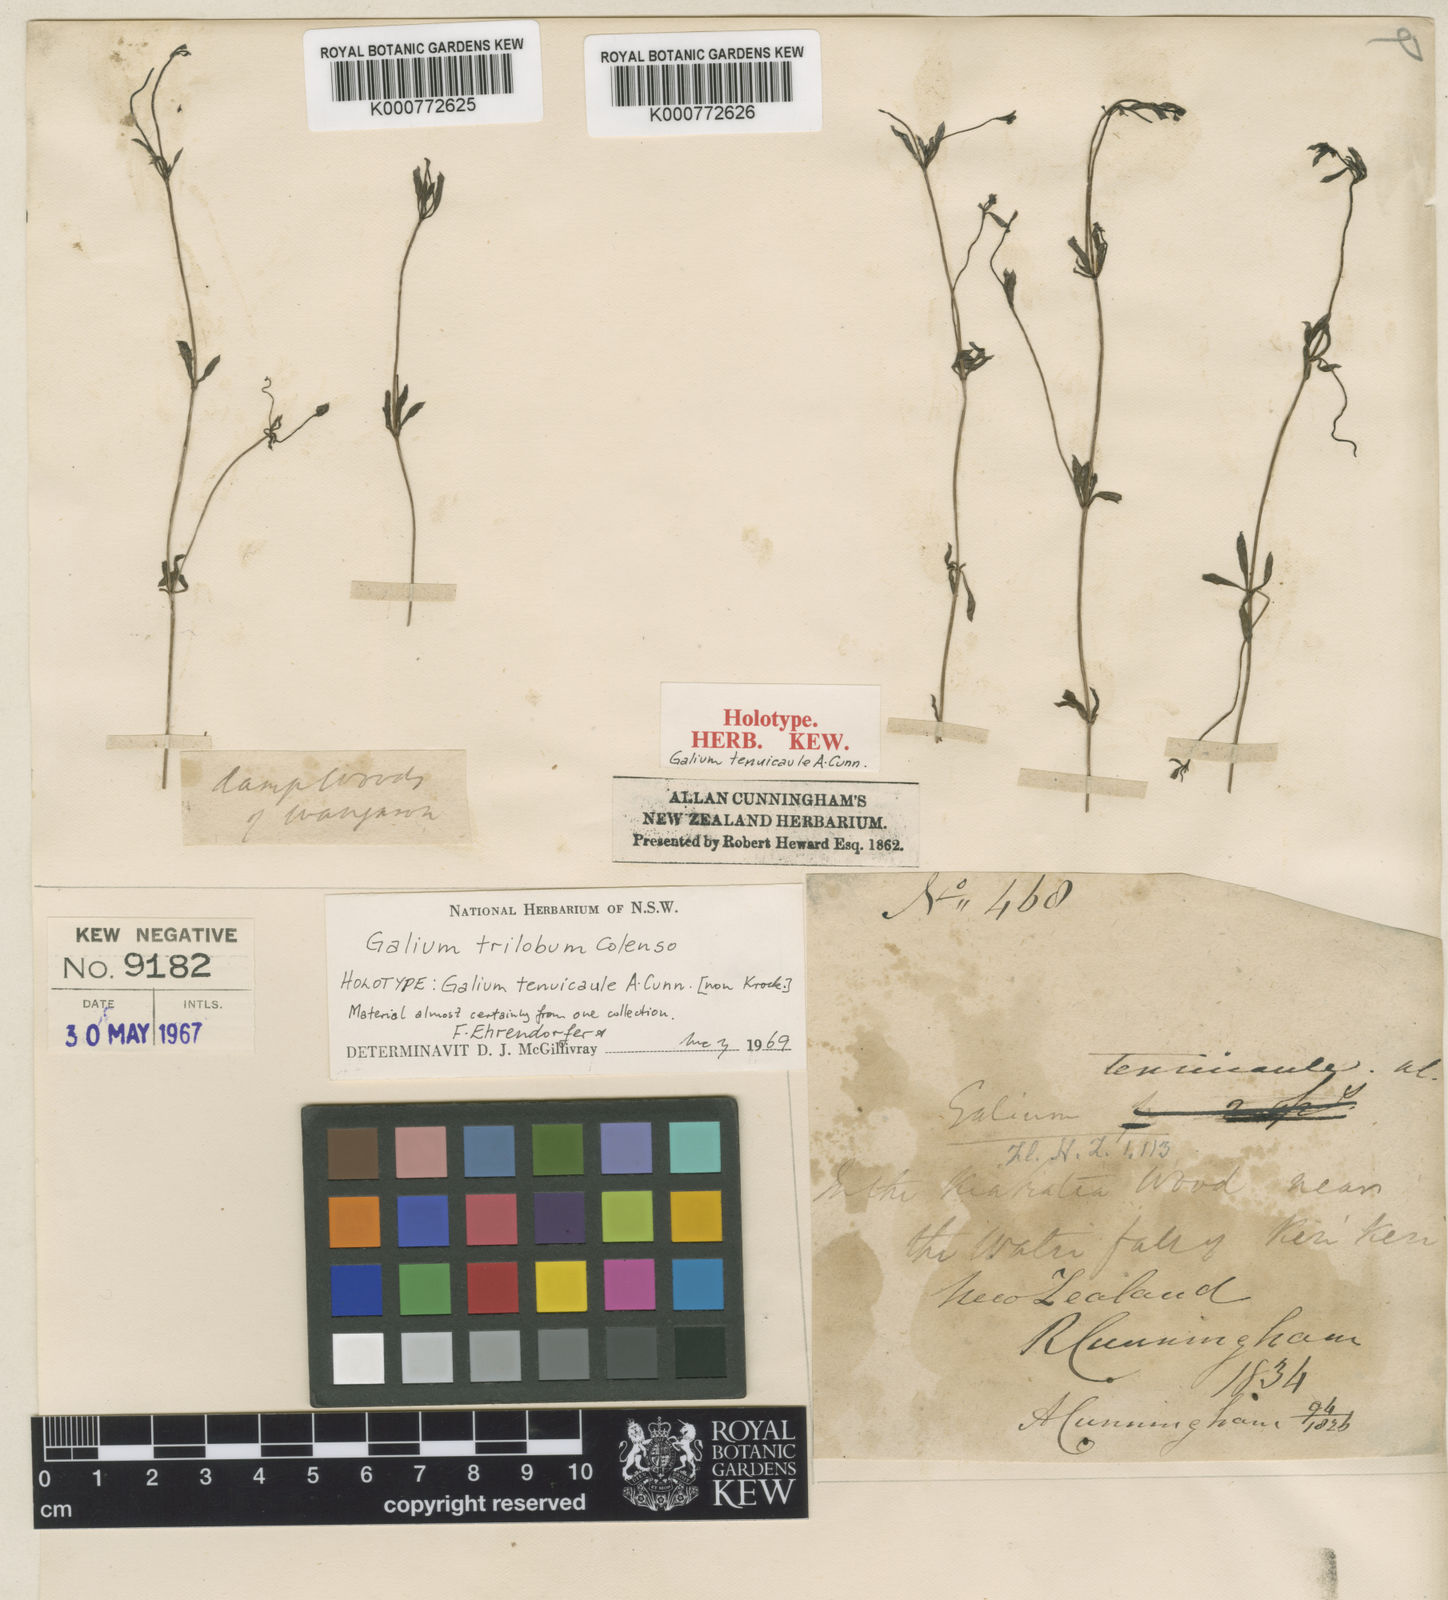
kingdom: Plantae
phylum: Tracheophyta
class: Magnoliopsida
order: Gentianales
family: Rubiaceae
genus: Galium
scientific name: Galium trilobum
